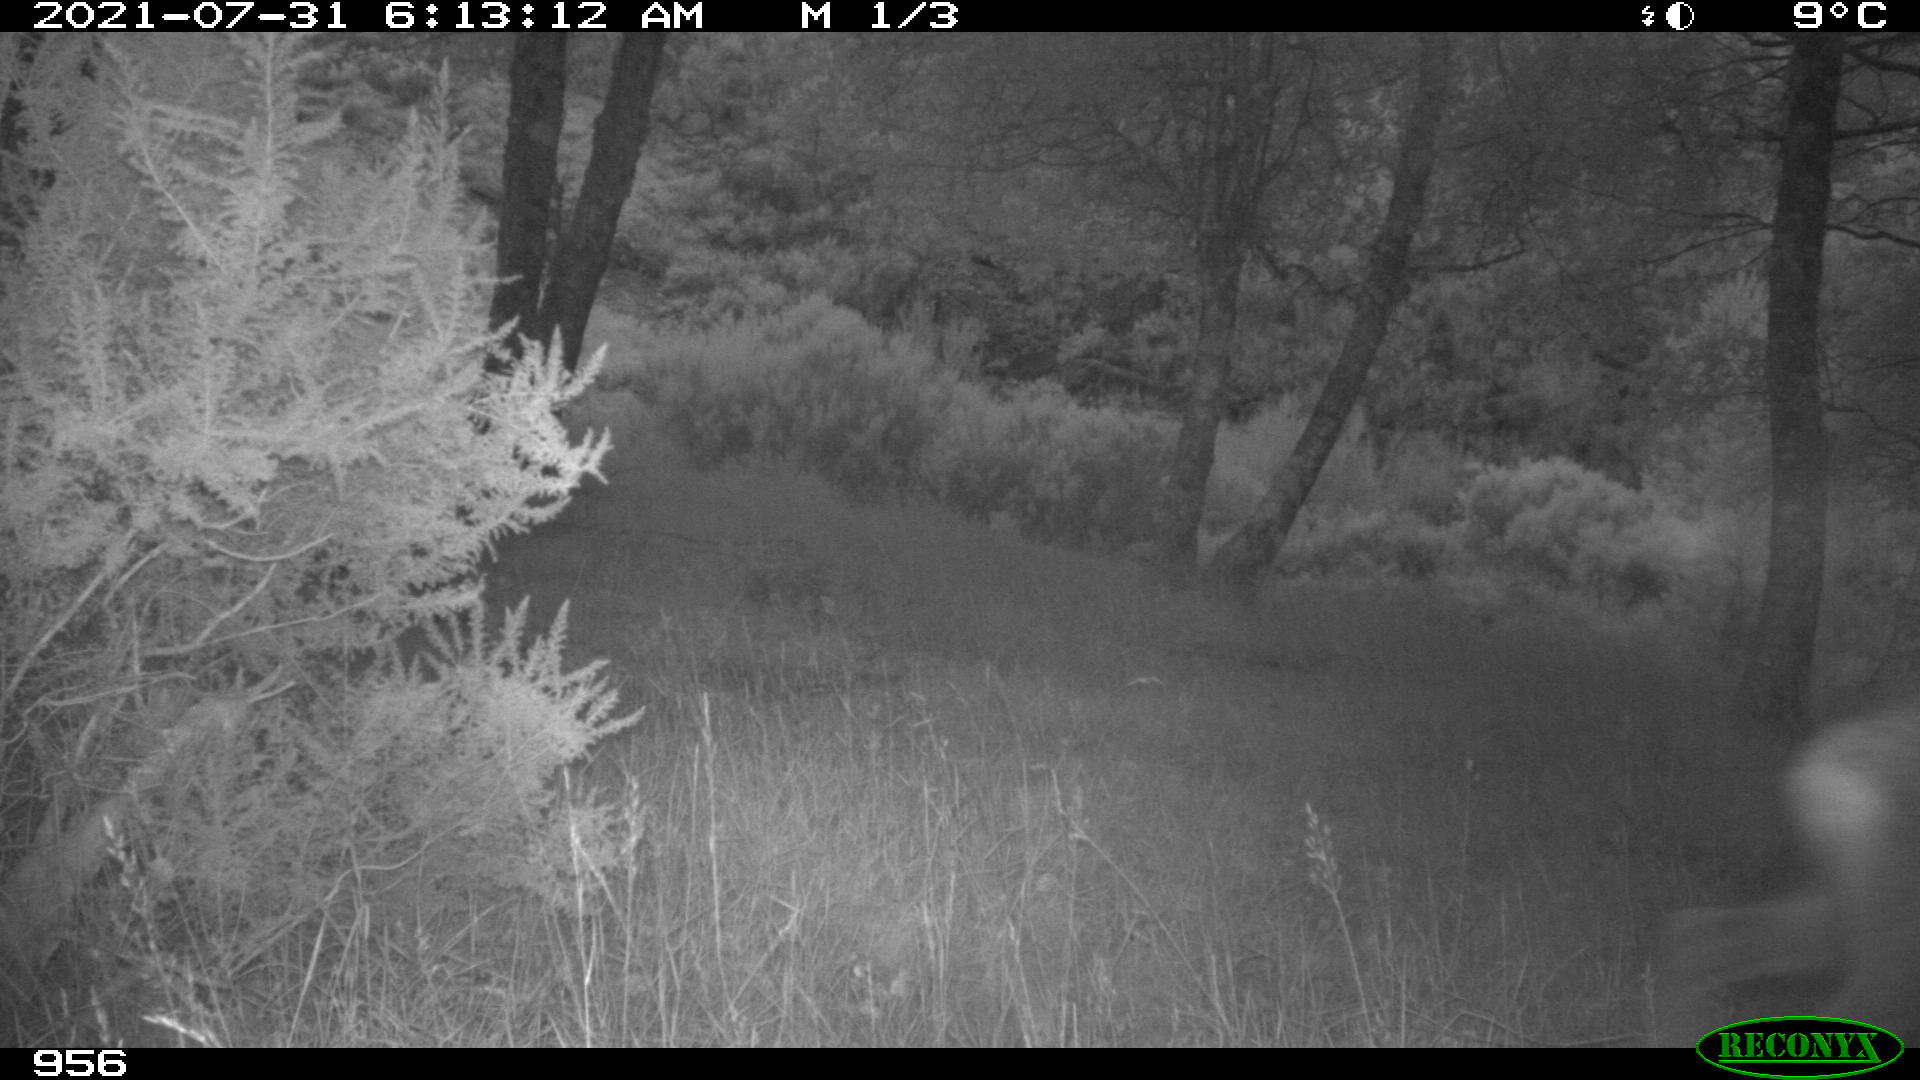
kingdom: Animalia
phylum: Chordata
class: Mammalia
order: Artiodactyla
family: Cervidae
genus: Capreolus
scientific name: Capreolus capreolus
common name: Western roe deer
